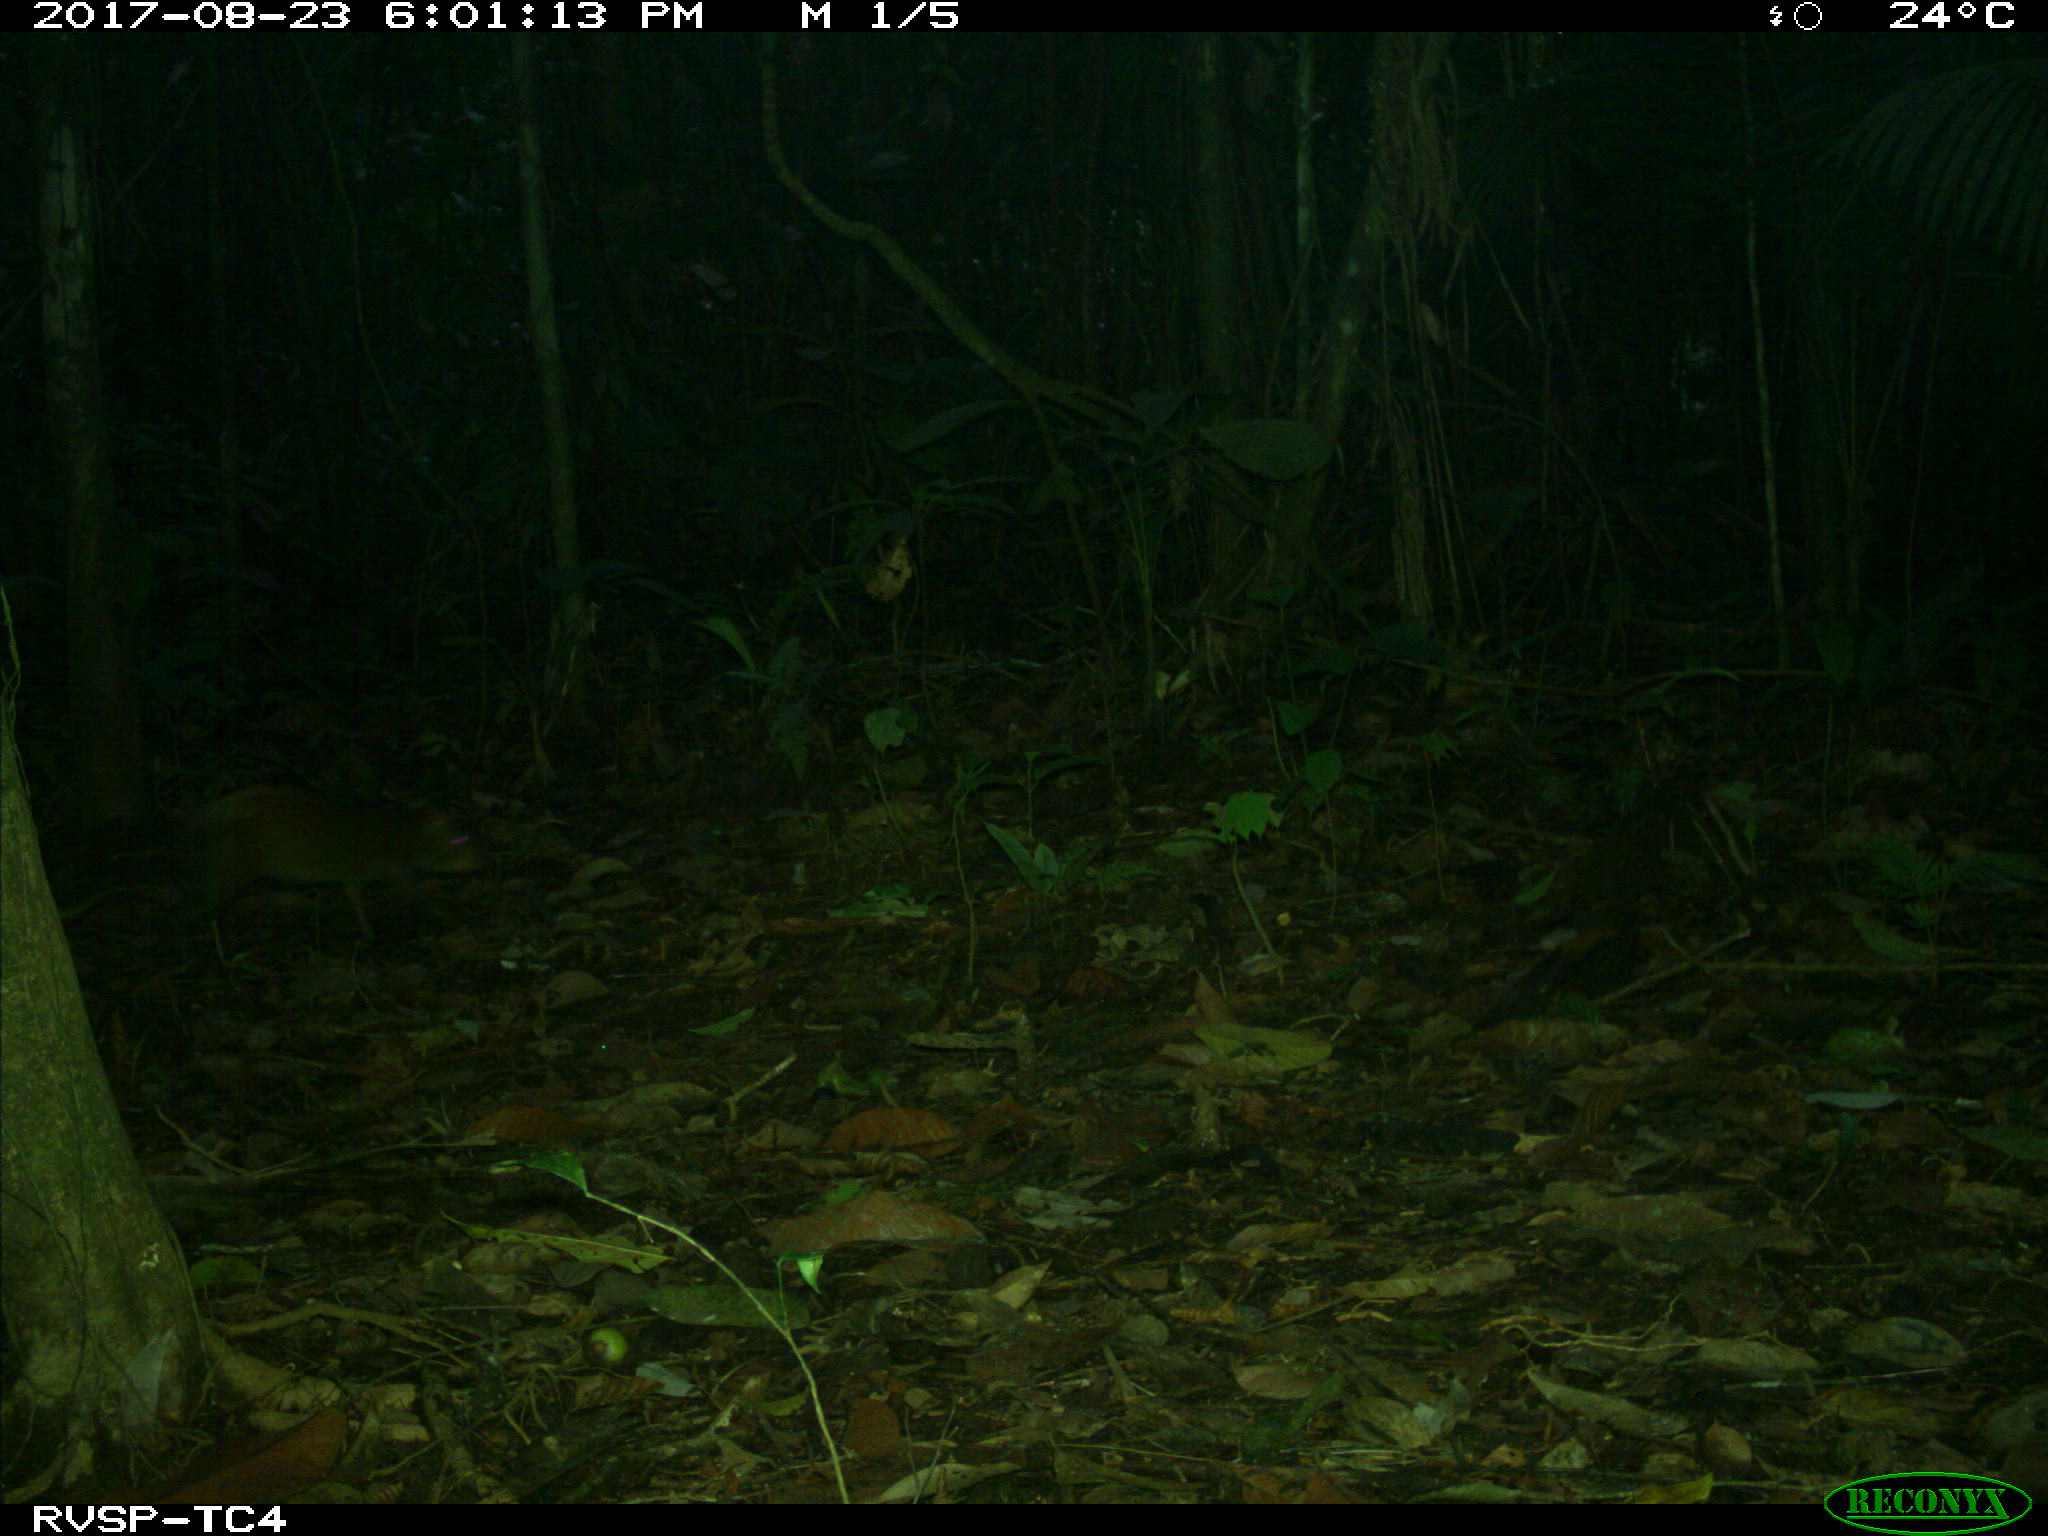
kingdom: Animalia
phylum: Chordata
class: Mammalia
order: Rodentia
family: Dasyproctidae
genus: Dasyprocta
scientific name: Dasyprocta punctata
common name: Central american agouti
